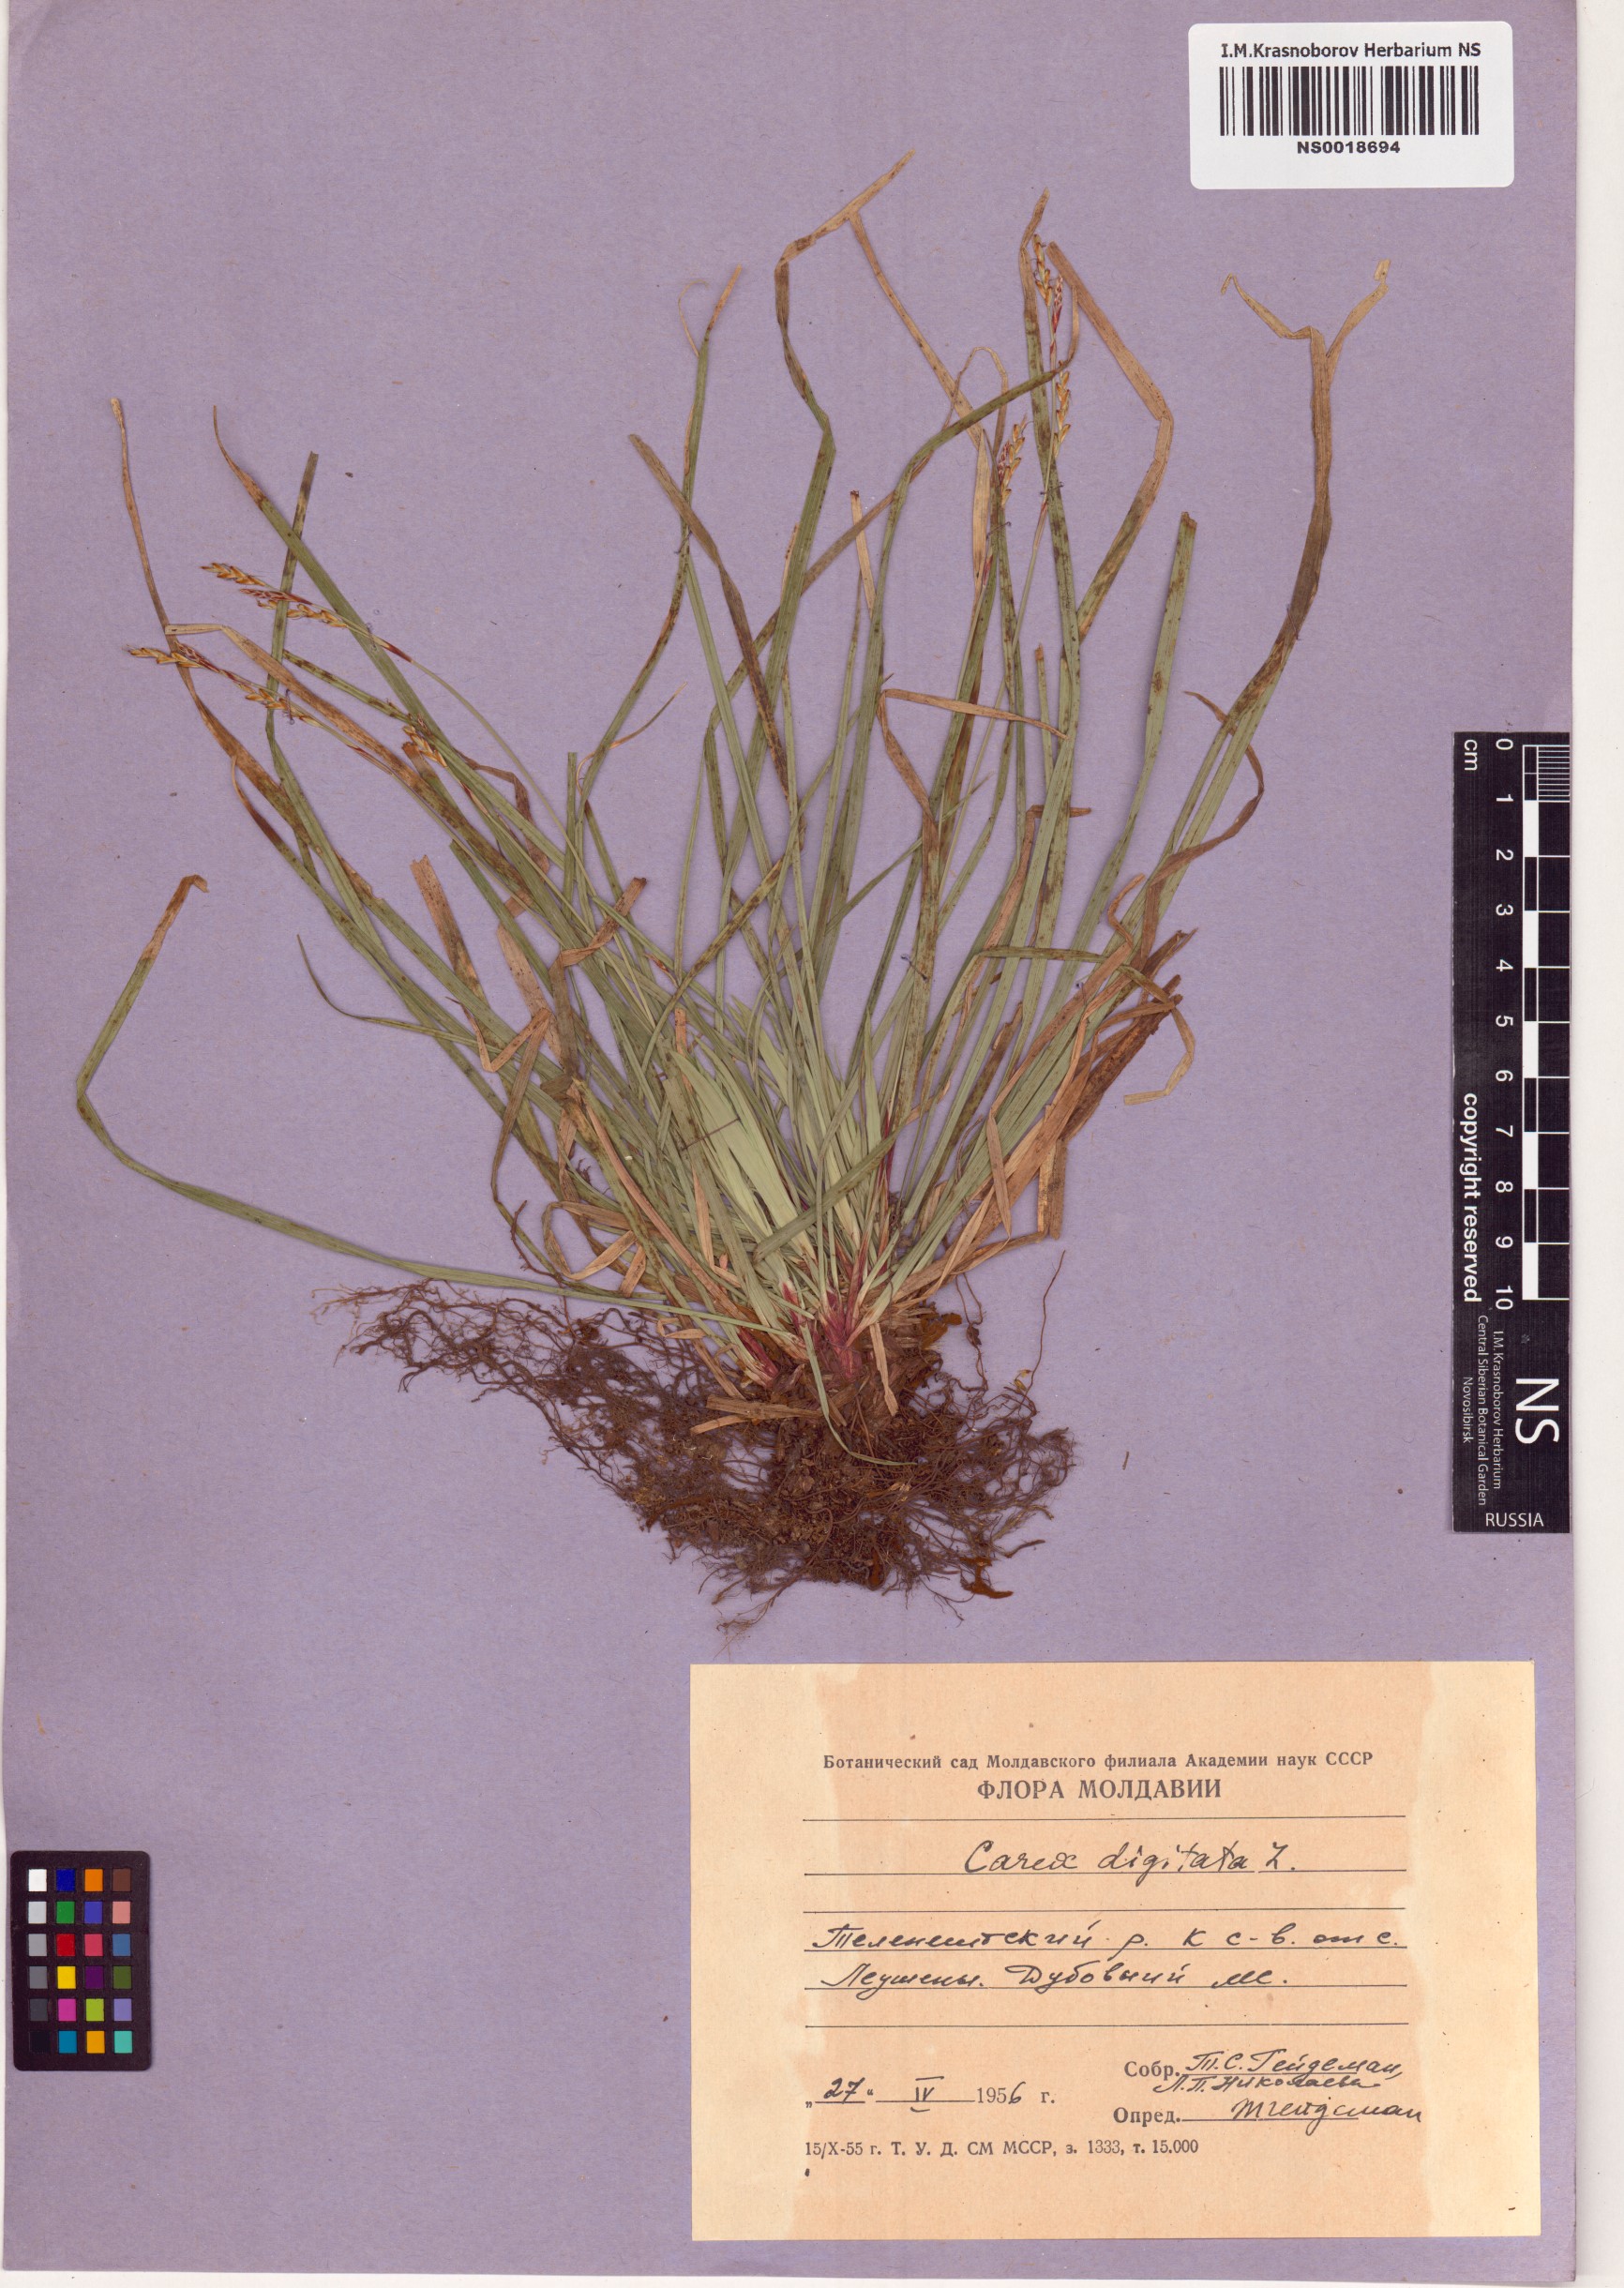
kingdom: Plantae
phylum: Tracheophyta
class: Liliopsida
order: Poales
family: Cyperaceae
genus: Carex
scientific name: Carex digitata
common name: Fingered sedge
